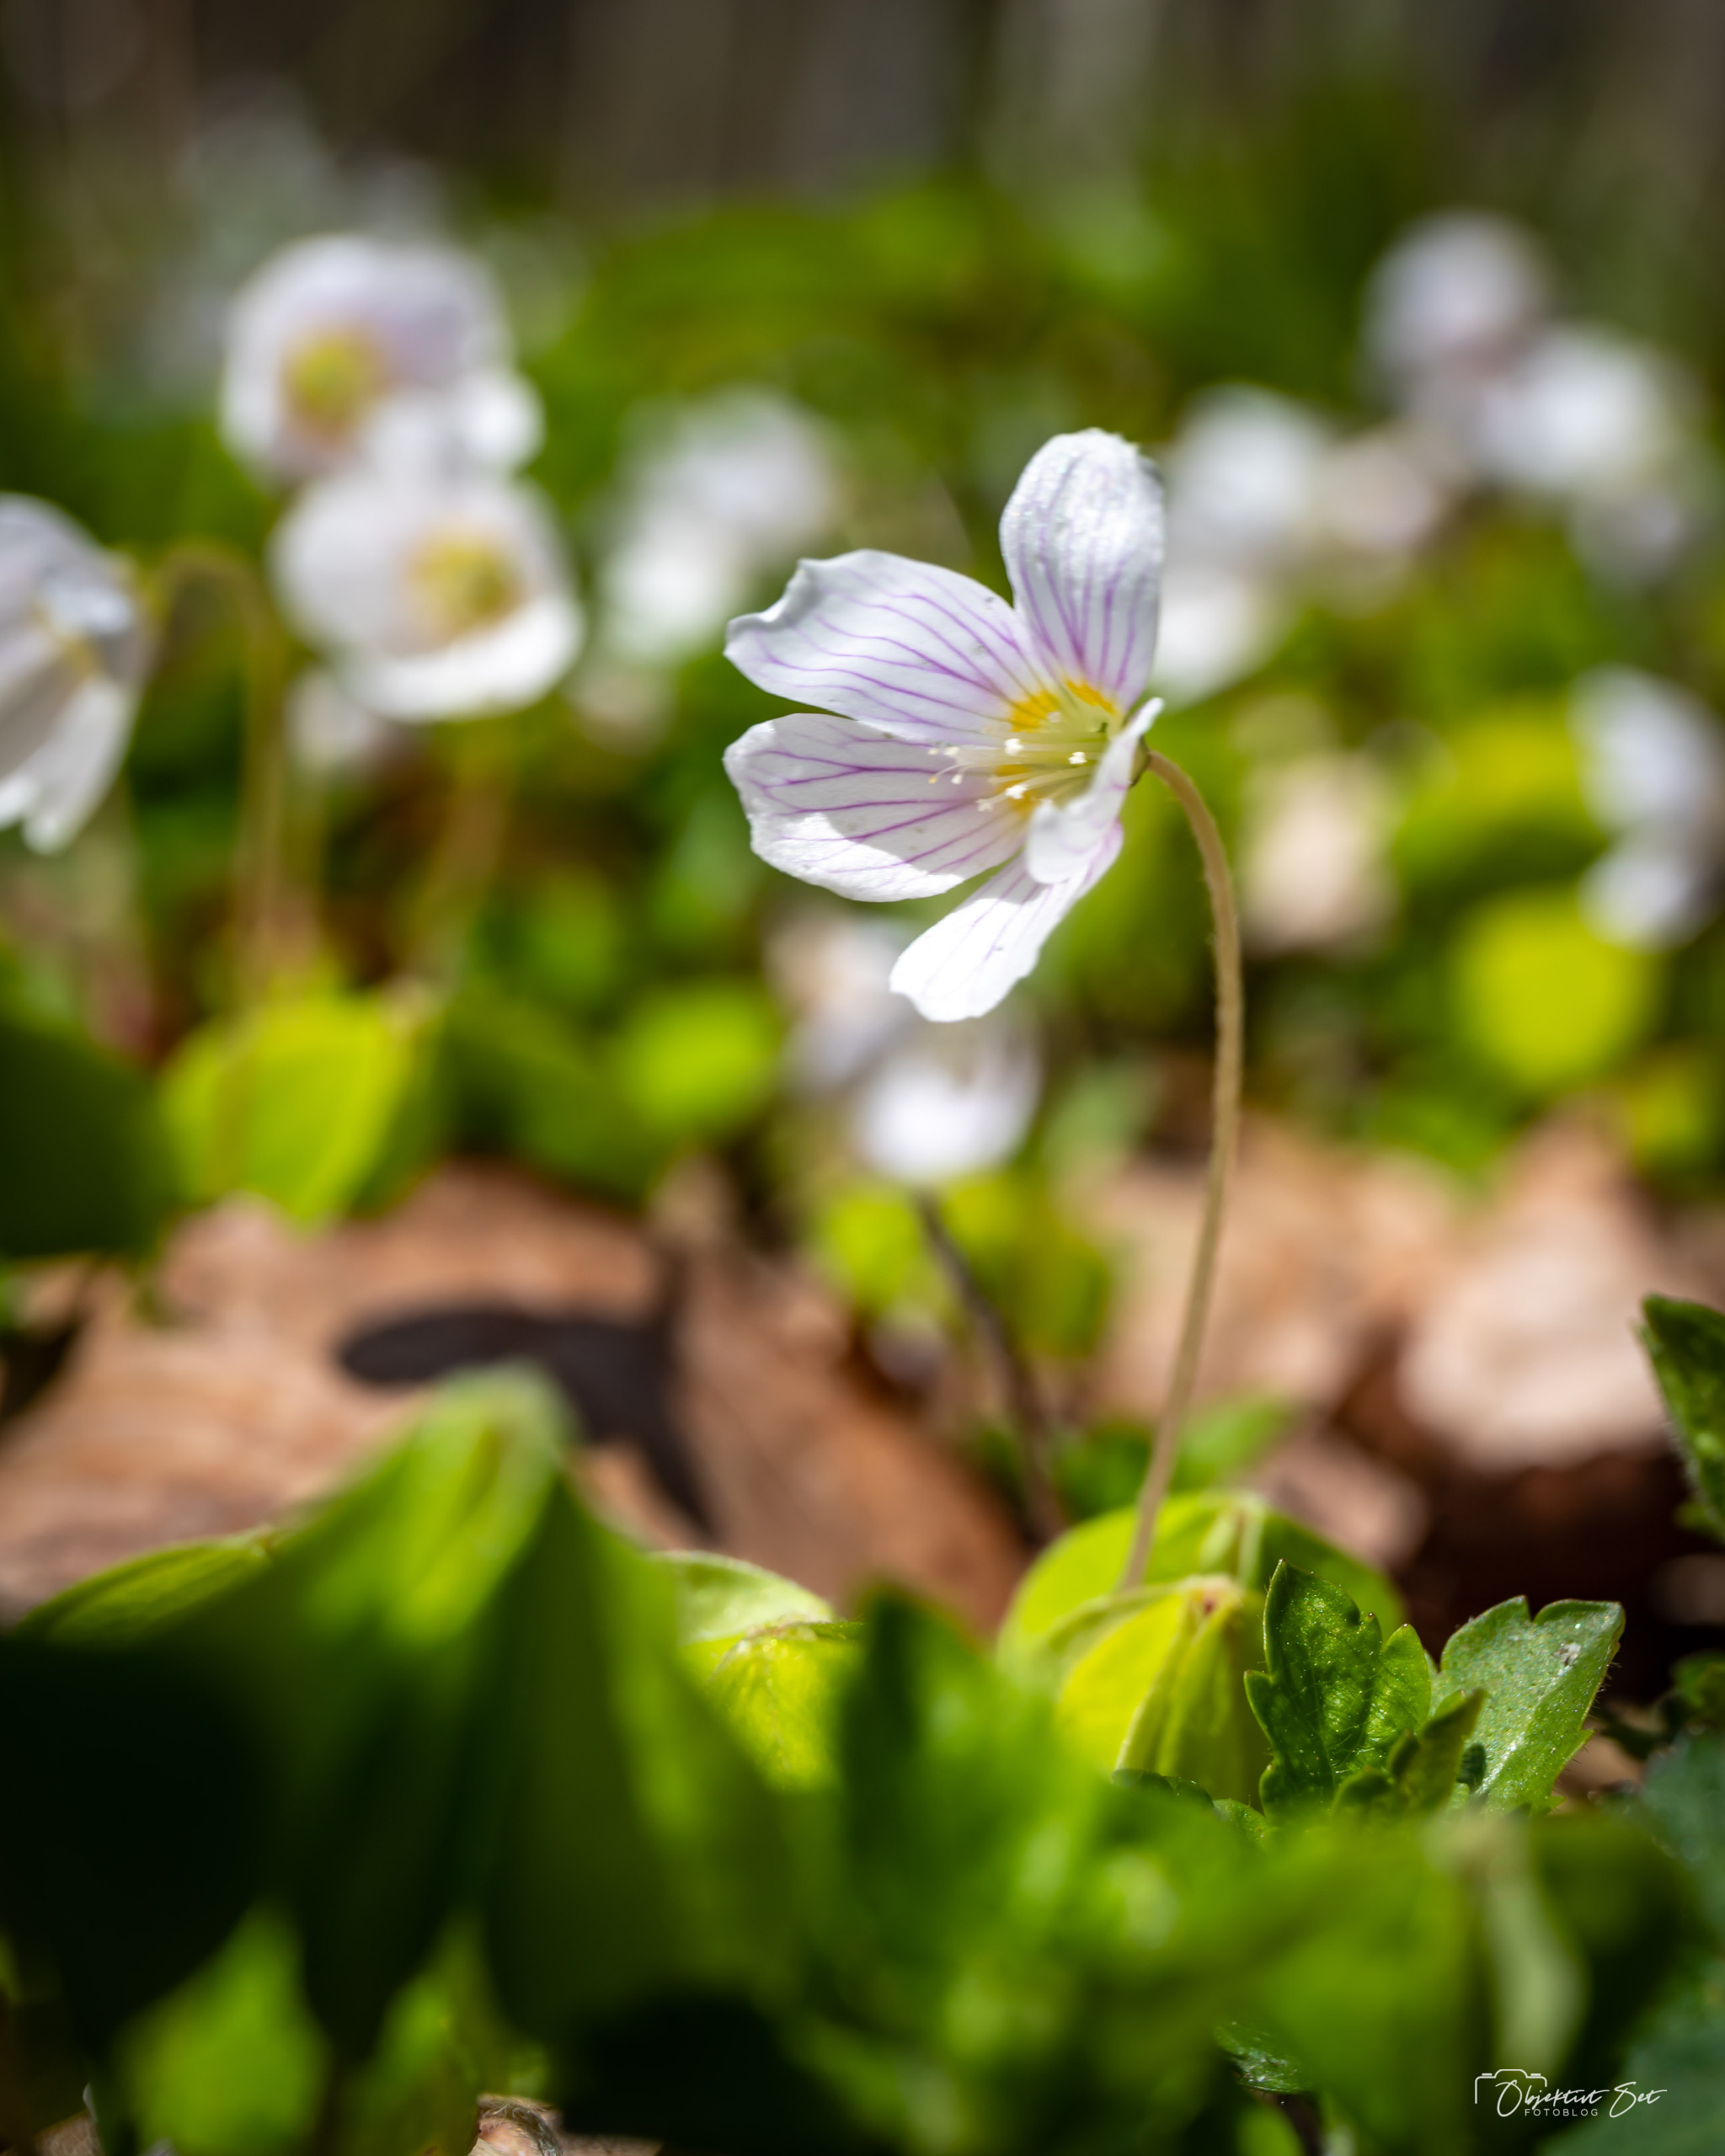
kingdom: Plantae
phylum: Tracheophyta
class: Magnoliopsida
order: Oxalidales
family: Oxalidaceae
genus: Oxalis
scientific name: Oxalis acetosella
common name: Skovsyre
